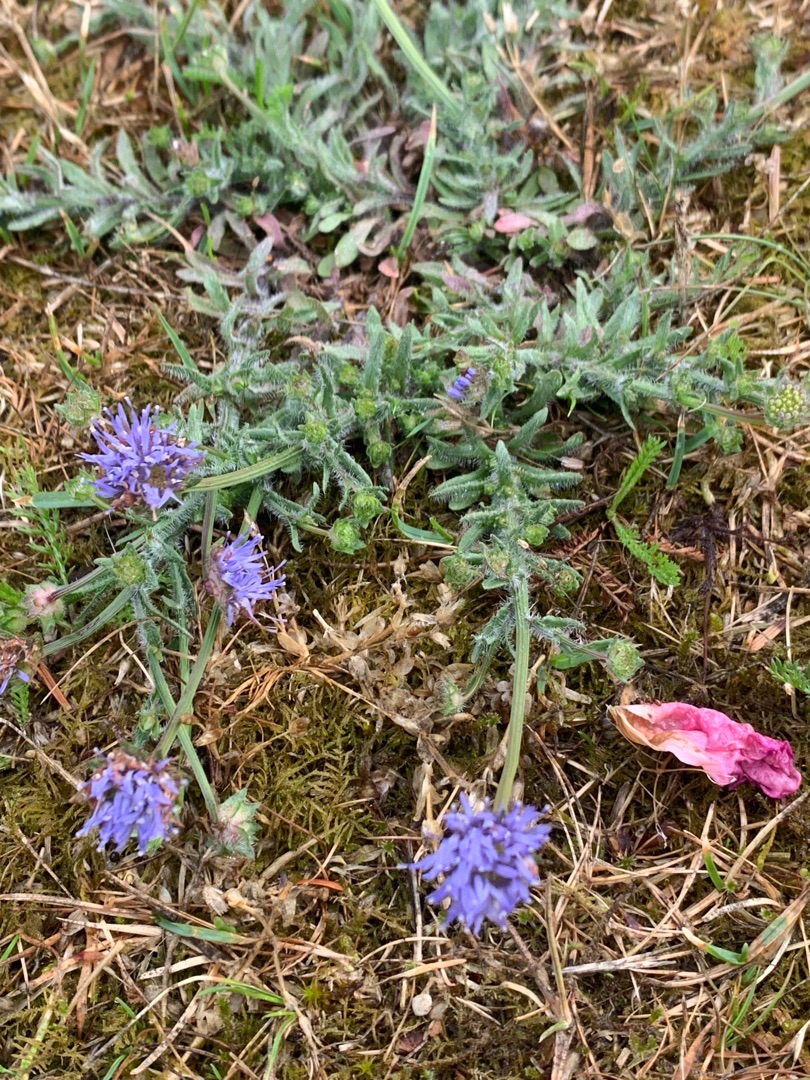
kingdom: Plantae
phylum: Tracheophyta
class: Magnoliopsida
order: Asterales
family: Campanulaceae
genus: Jasione
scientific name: Jasione montana
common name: Blåmunke
